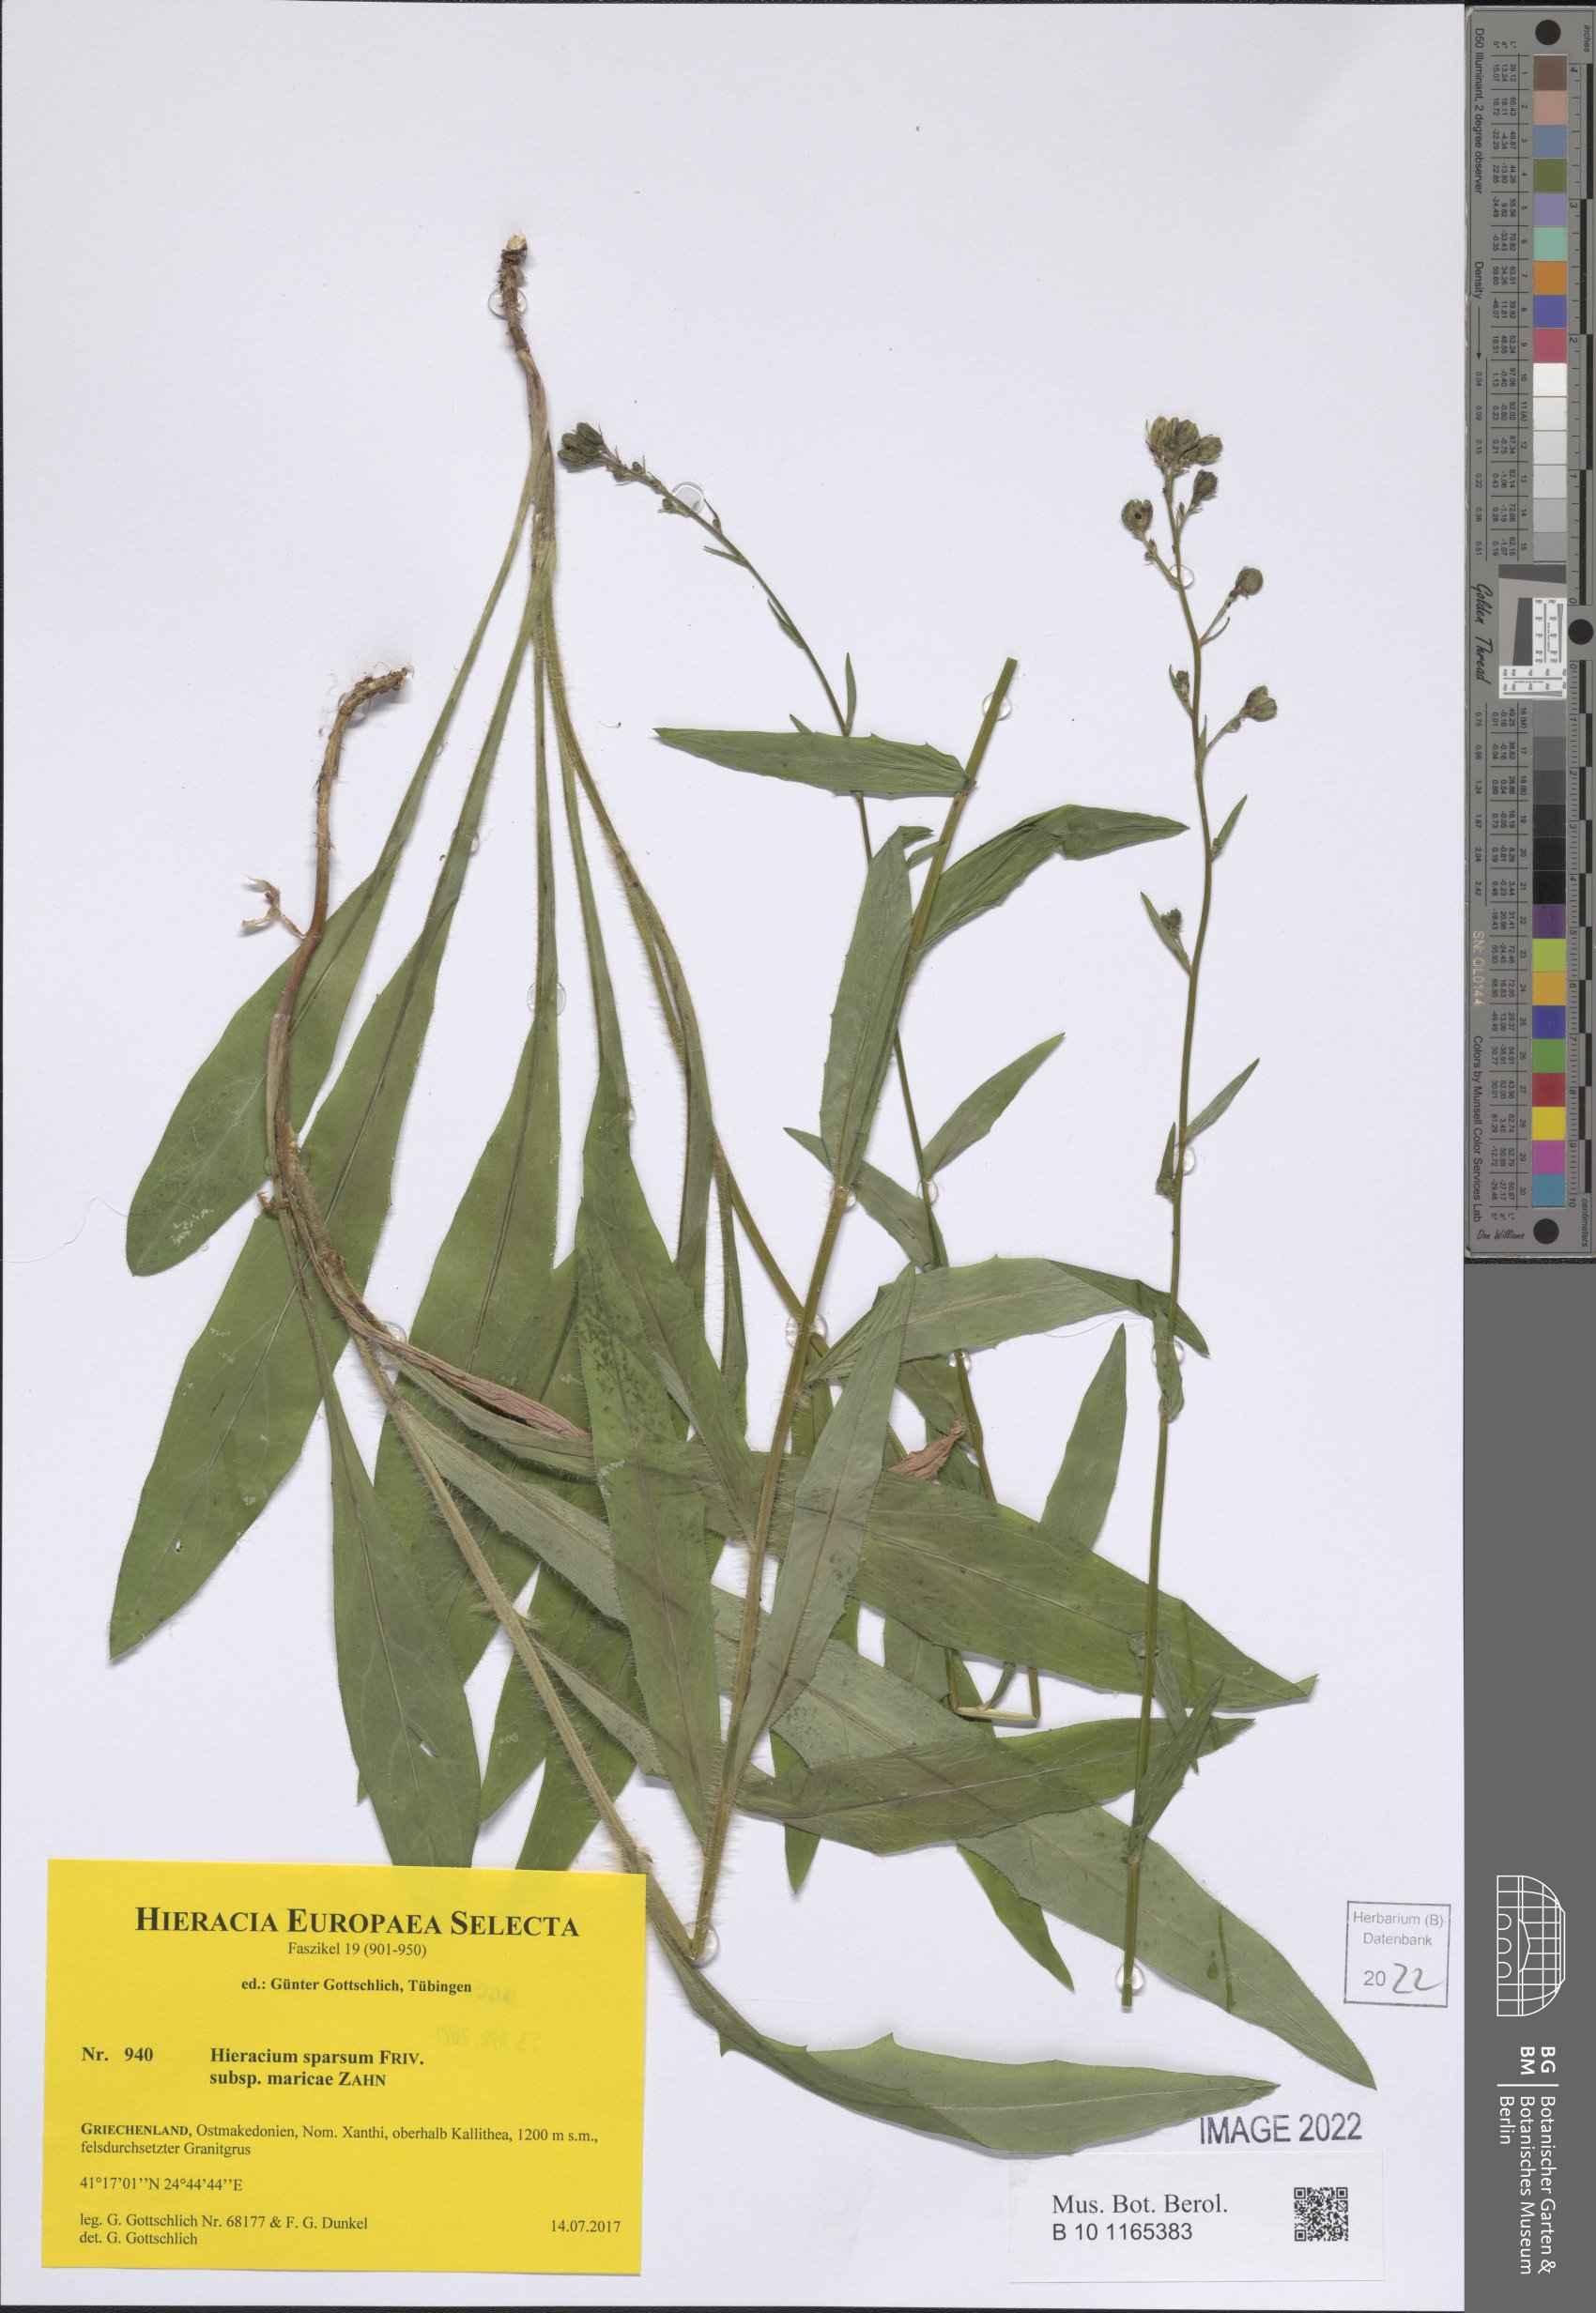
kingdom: Plantae
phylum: Tracheophyta
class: Magnoliopsida
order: Asterales
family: Asteraceae
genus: Hieracium
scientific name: Hieracium sparsum
